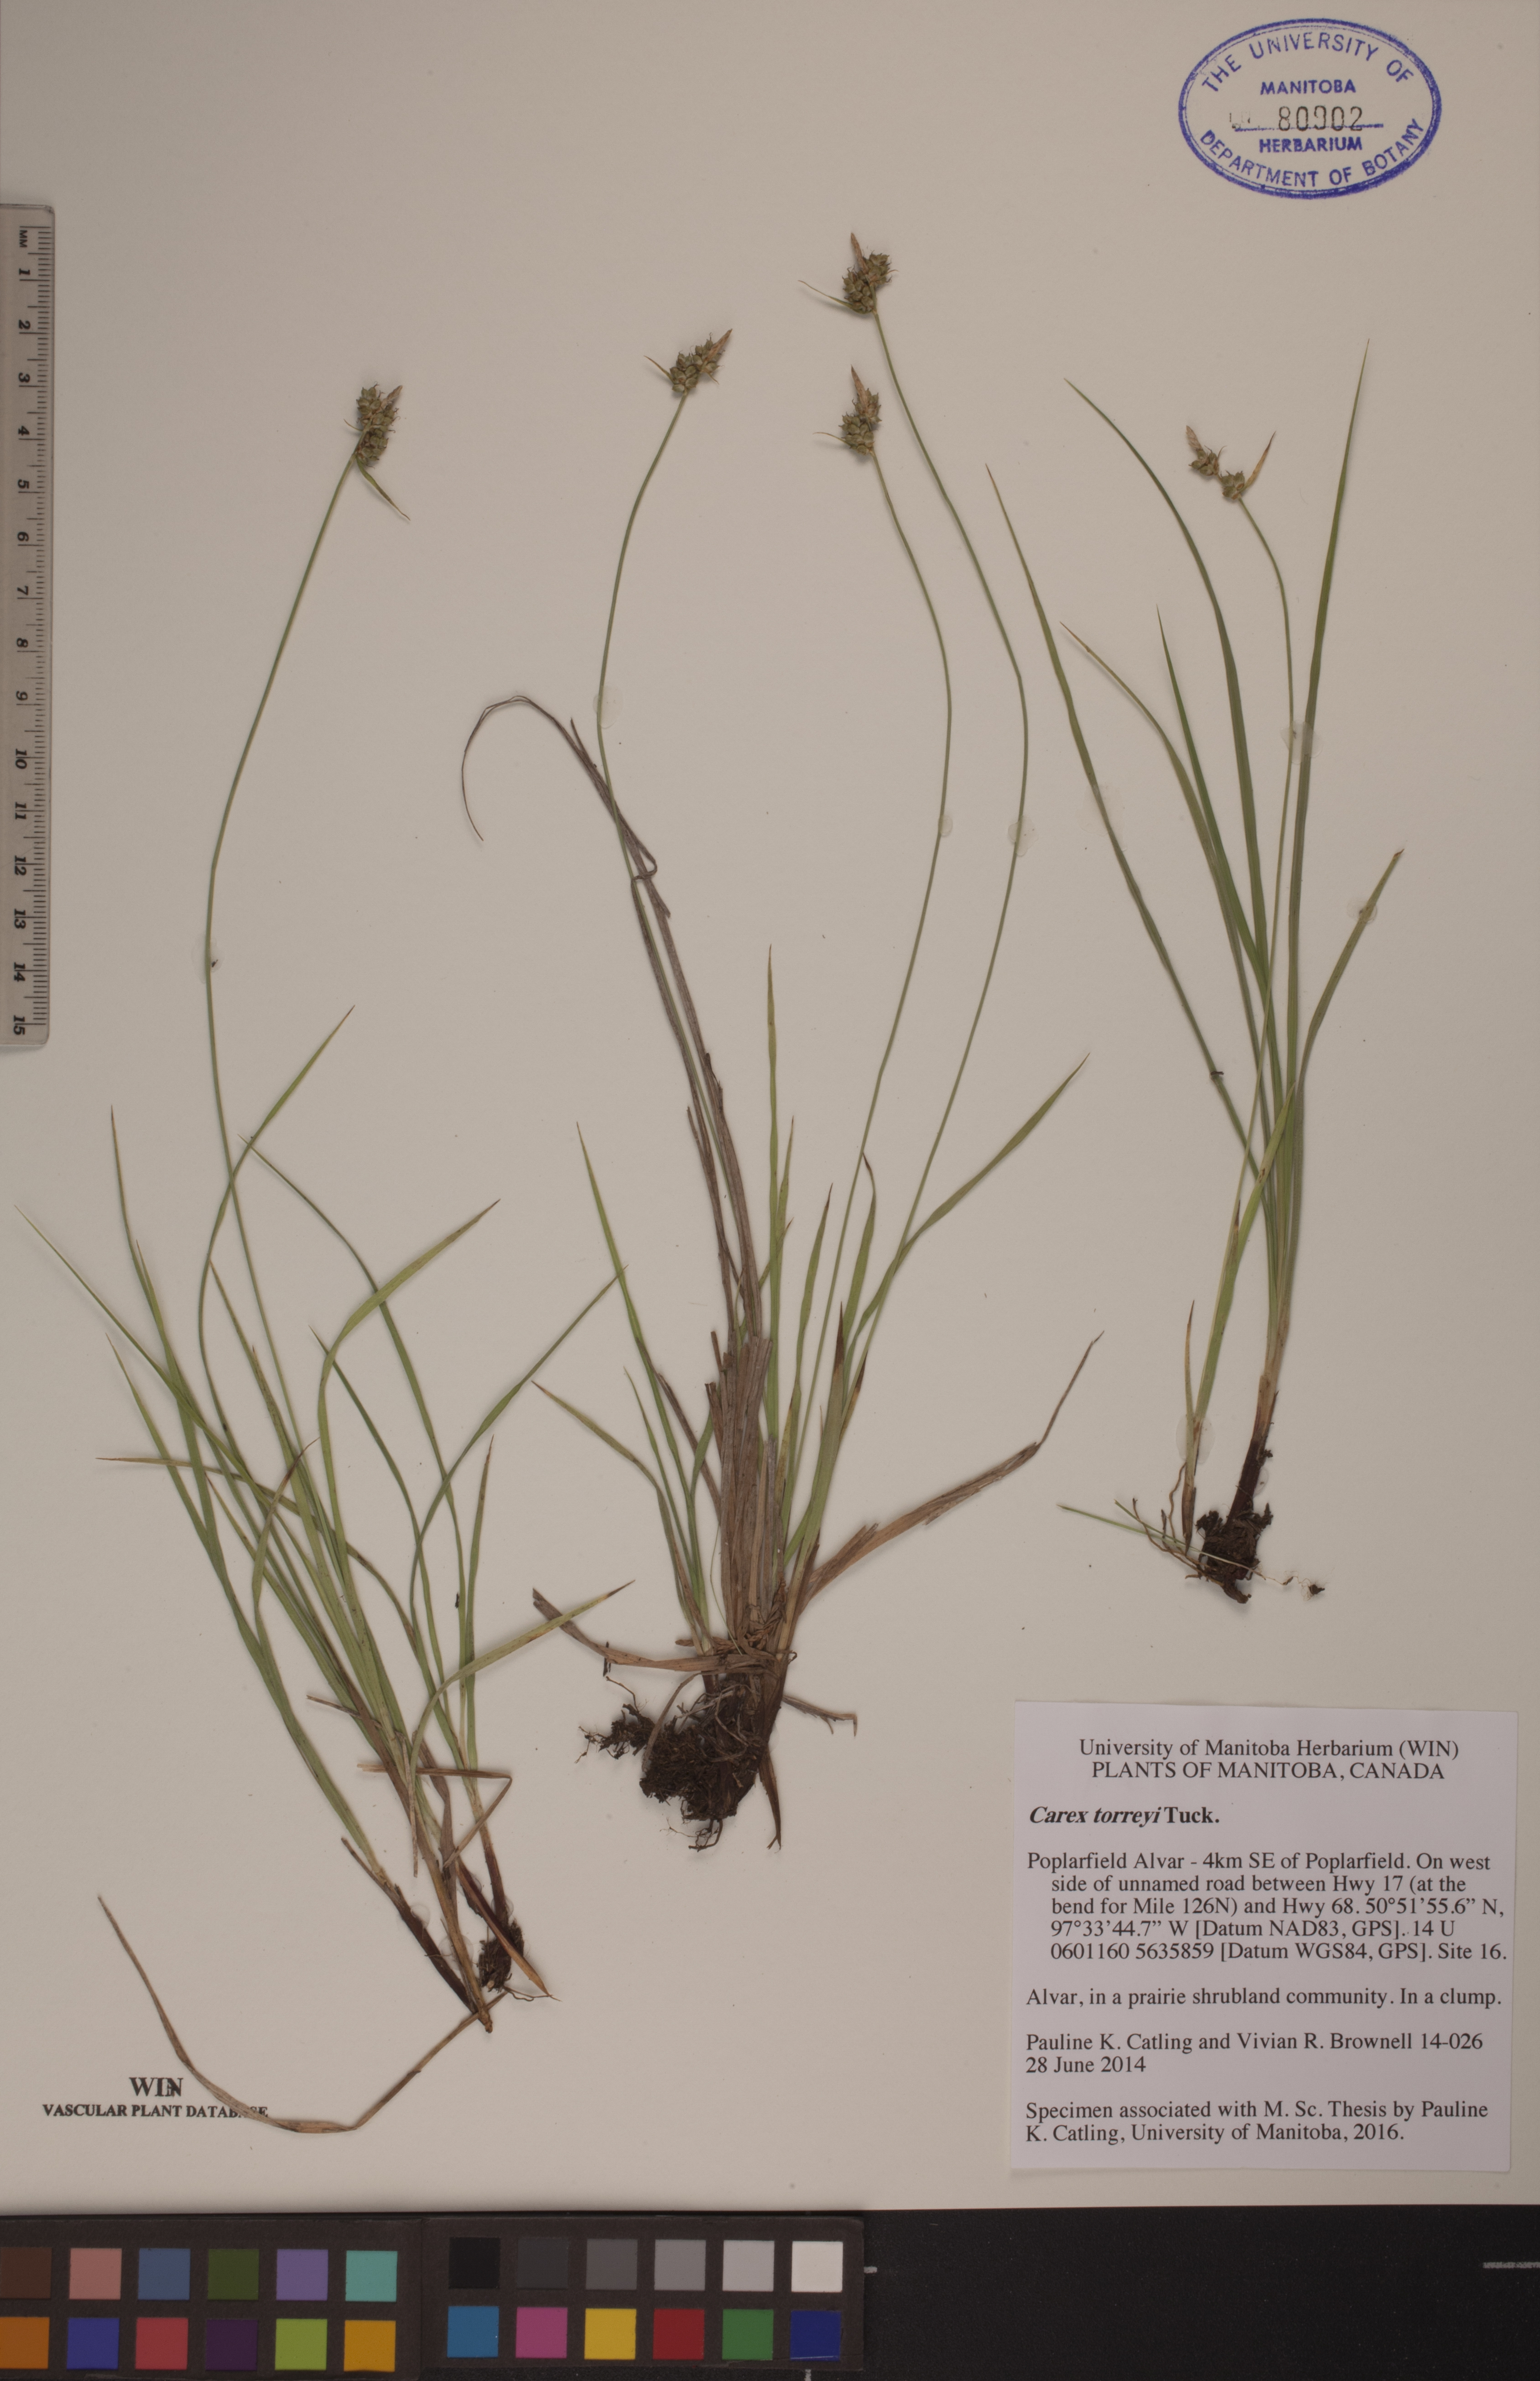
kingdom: Plantae
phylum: Tracheophyta
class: Liliopsida
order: Poales
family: Cyperaceae
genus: Carex
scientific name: Carex torreyi
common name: Torrey's sedge
